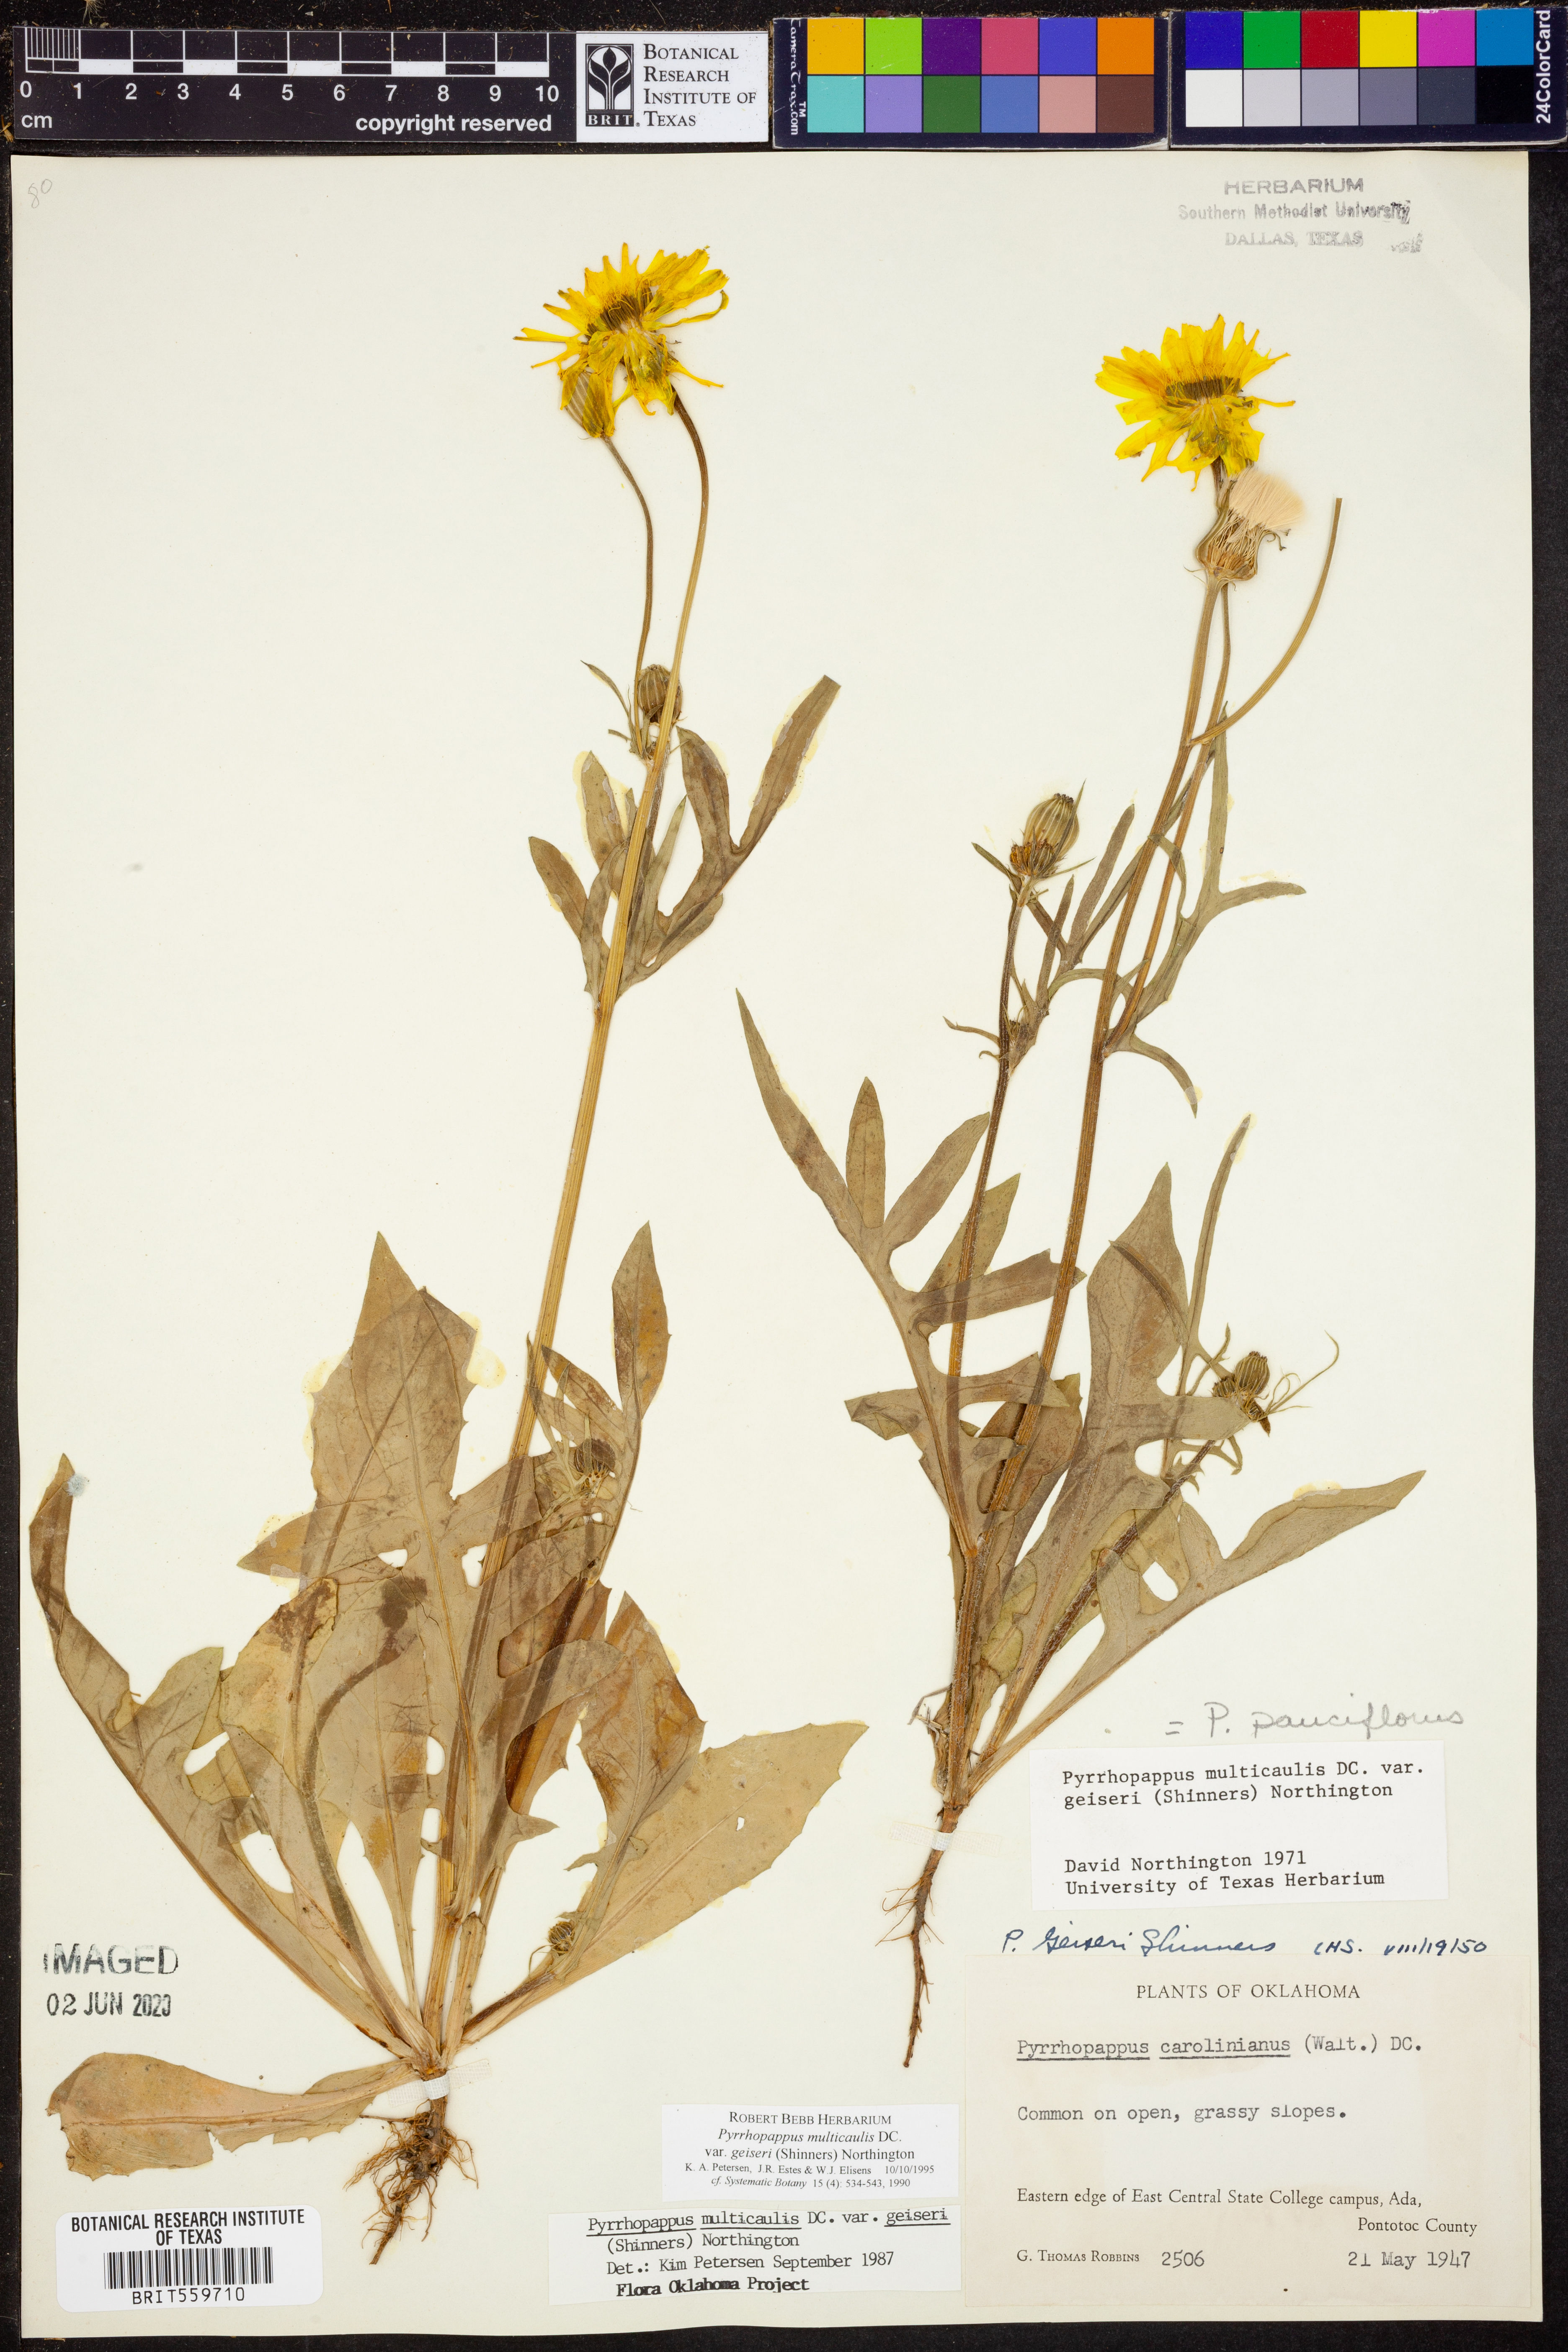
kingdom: Plantae
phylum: Tracheophyta
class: Magnoliopsida
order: Asterales
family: Asteraceae
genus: Pyrrhopappus
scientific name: Pyrrhopappus pauciflorus
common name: Texas false dandelion
